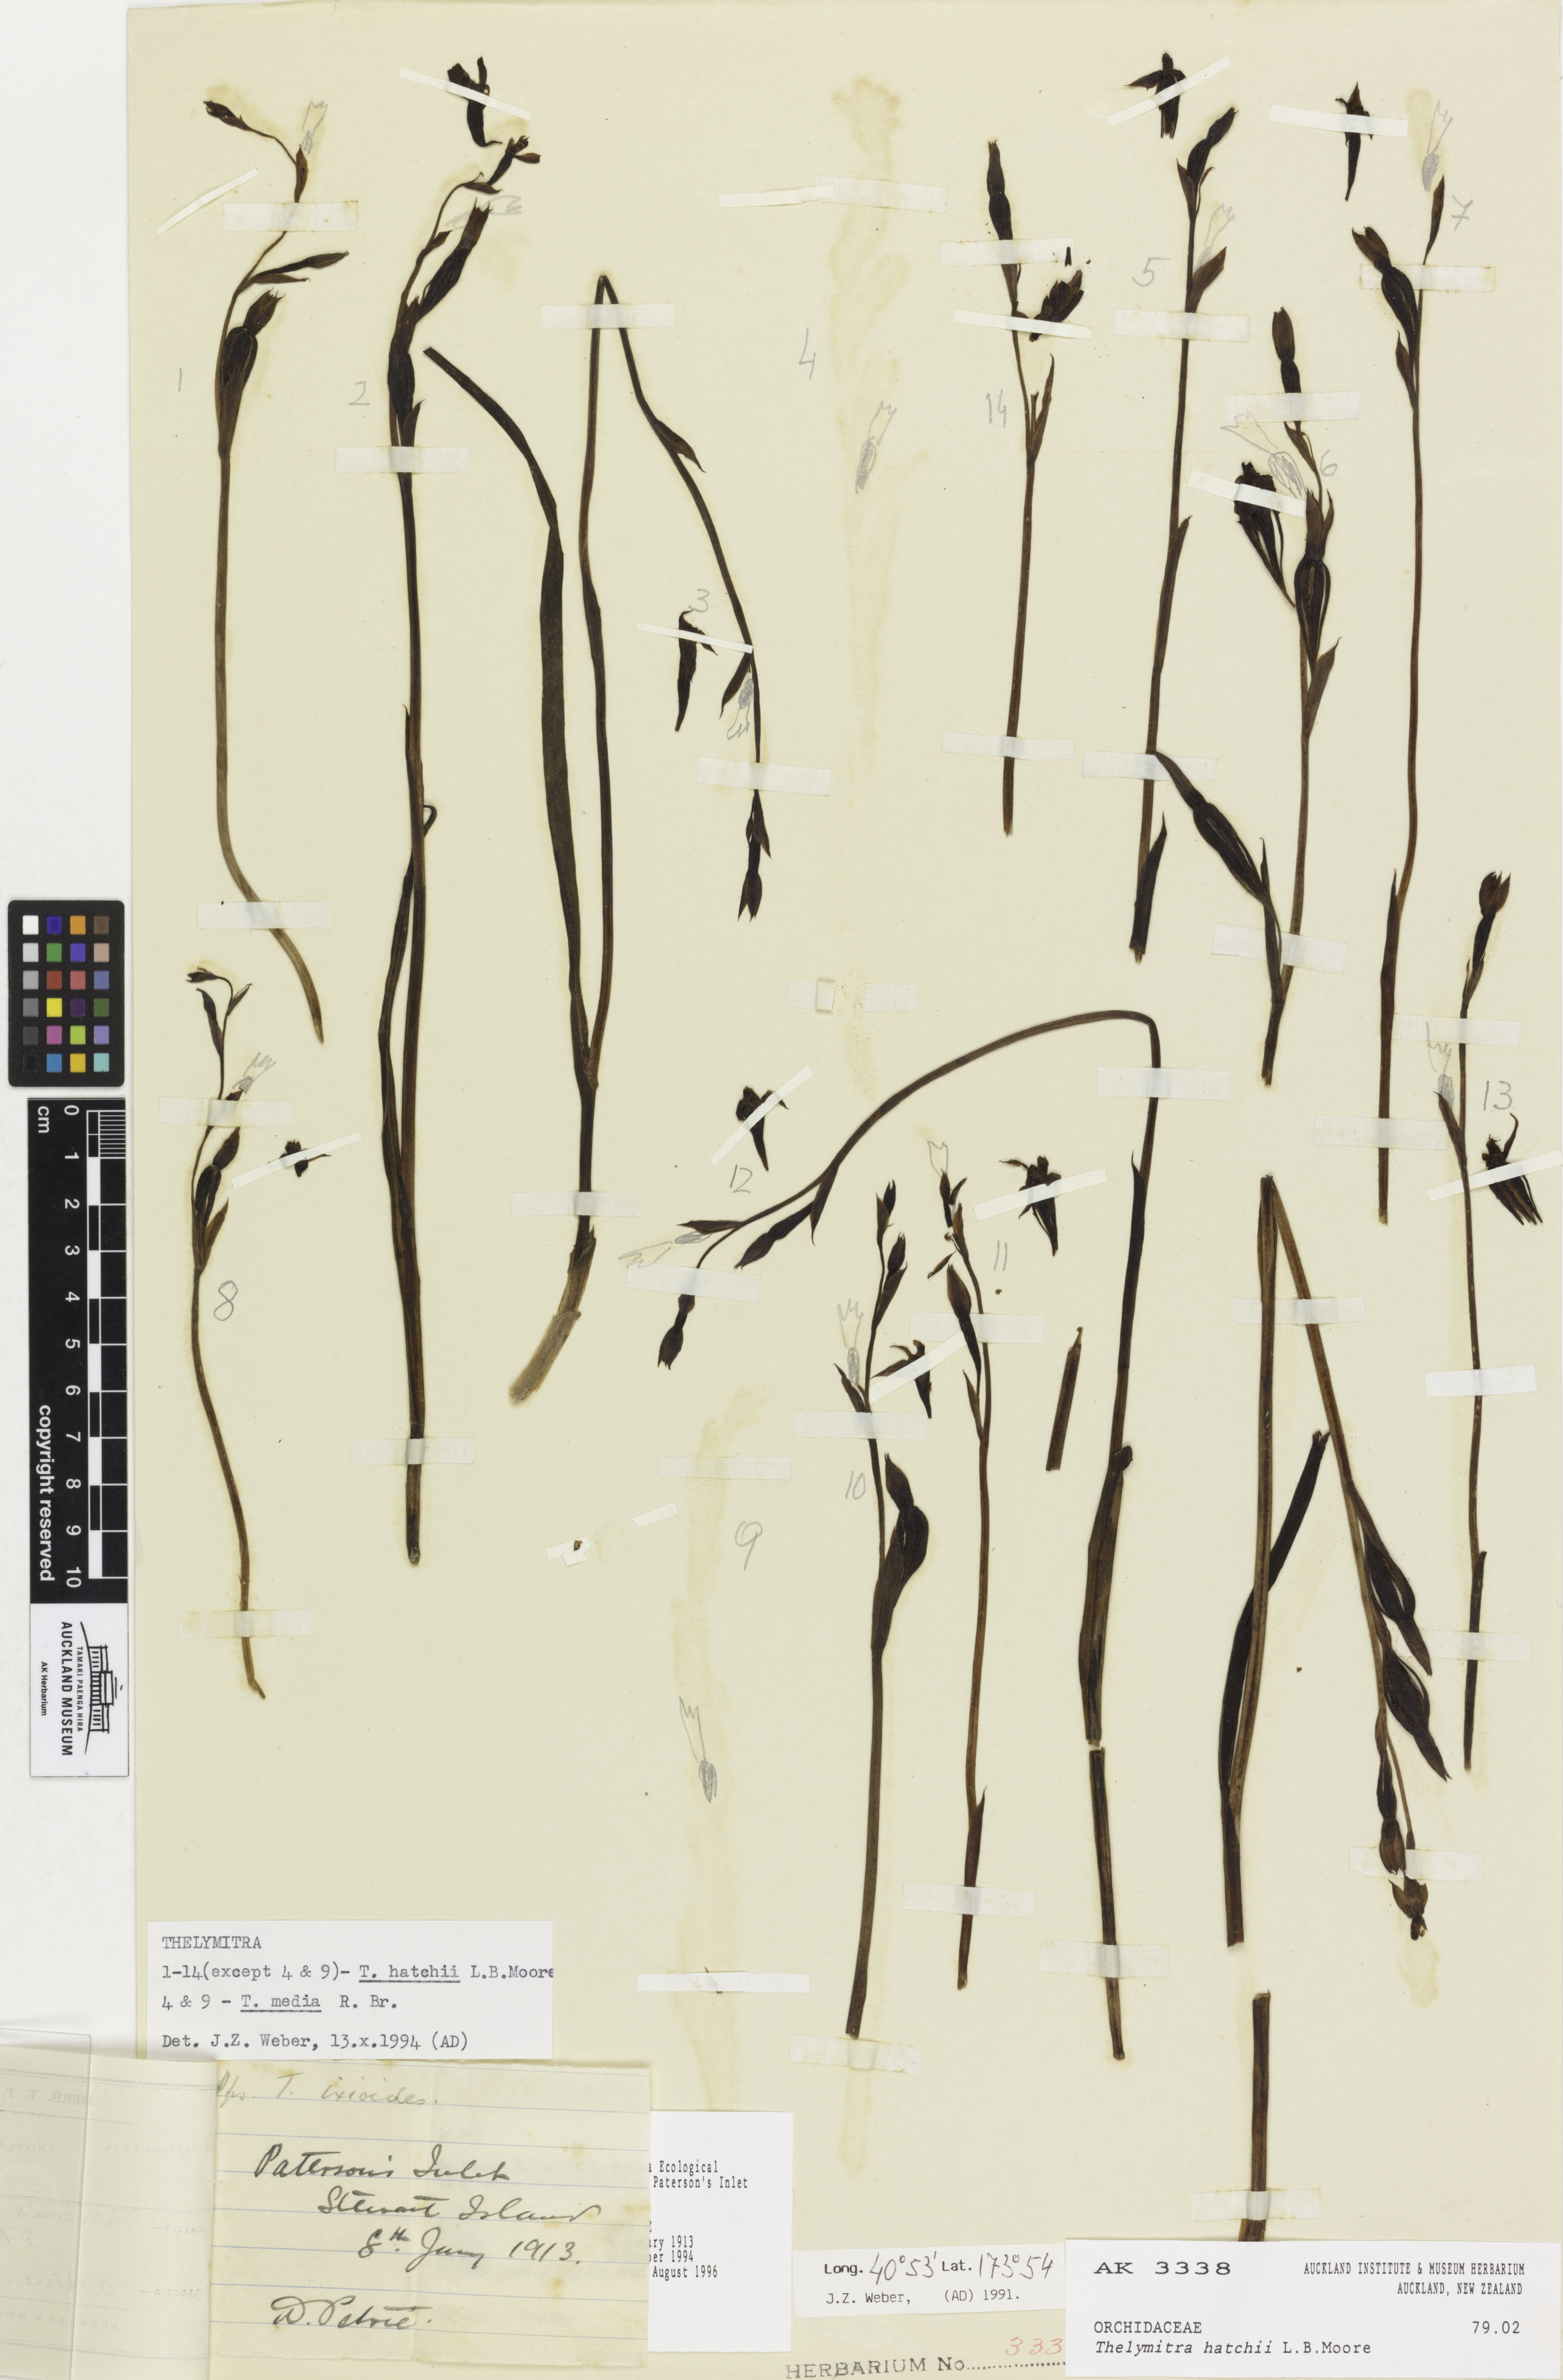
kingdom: Plantae
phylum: Tracheophyta
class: Liliopsida
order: Asparagales
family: Orchidaceae
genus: Thelymitra
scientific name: Thelymitra hatchii
